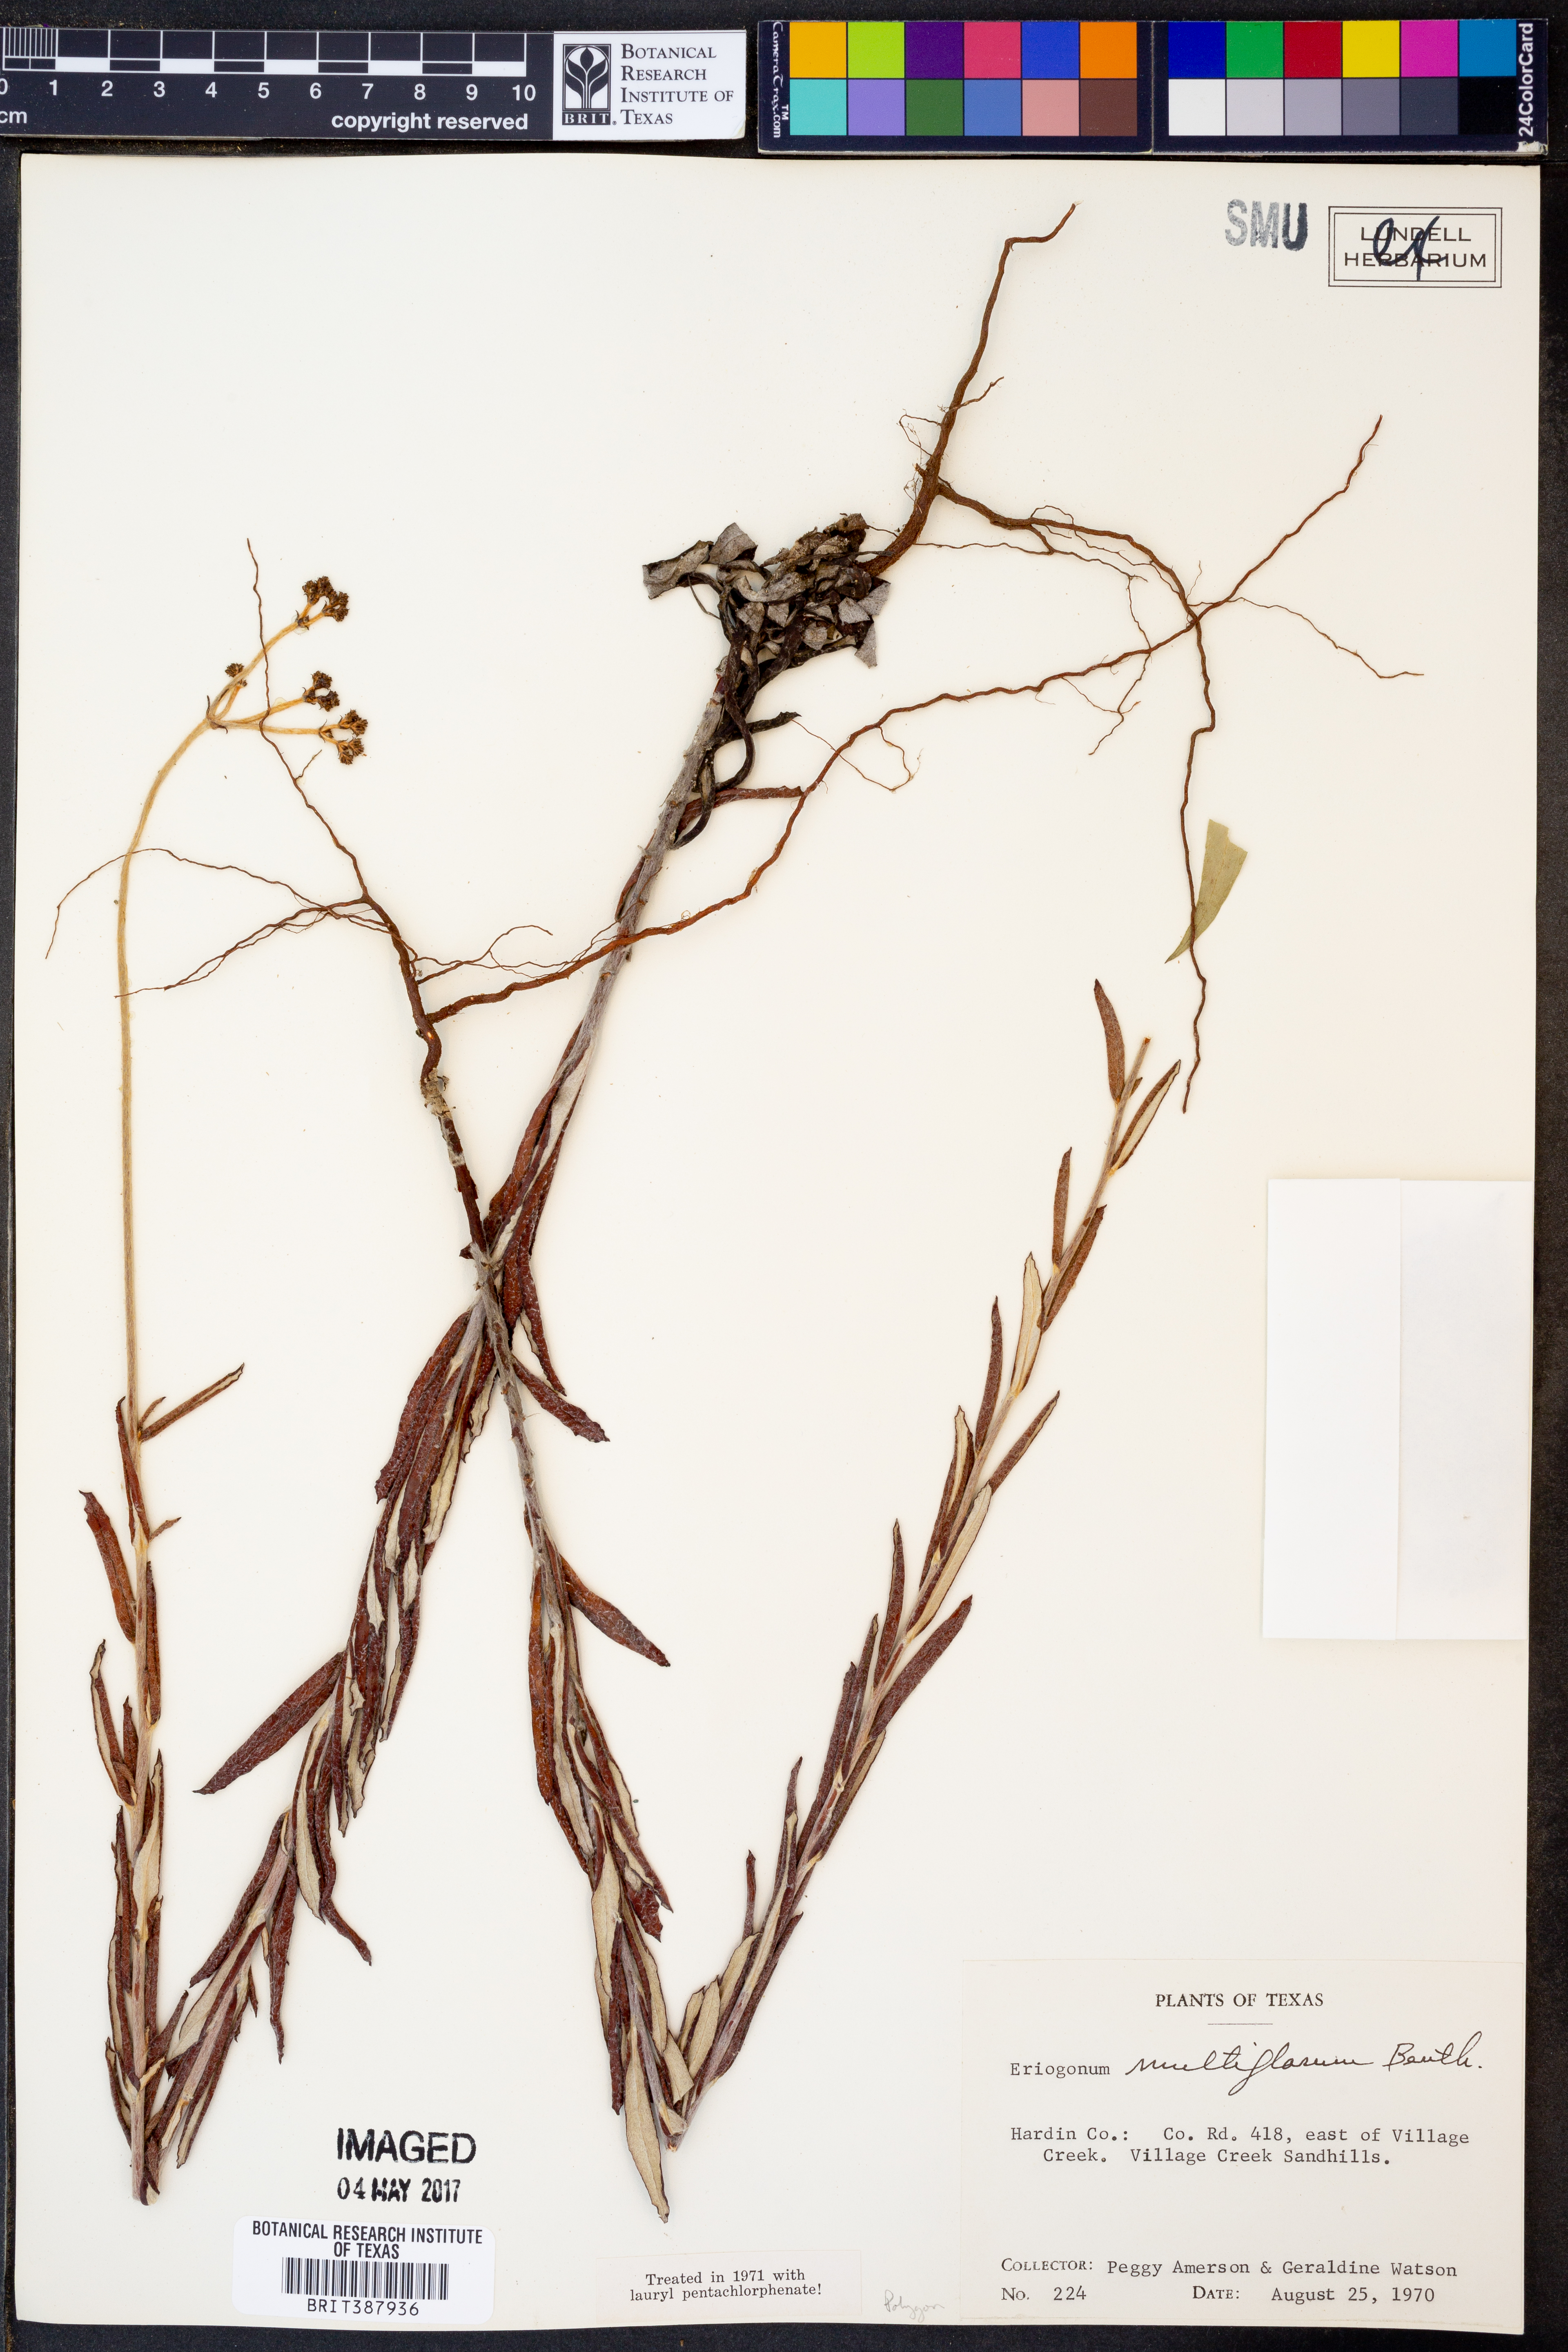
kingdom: Plantae
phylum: Tracheophyta
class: Magnoliopsida
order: Caryophyllales
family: Polygonaceae
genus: Eriogonum
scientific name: Eriogonum multiflorum
